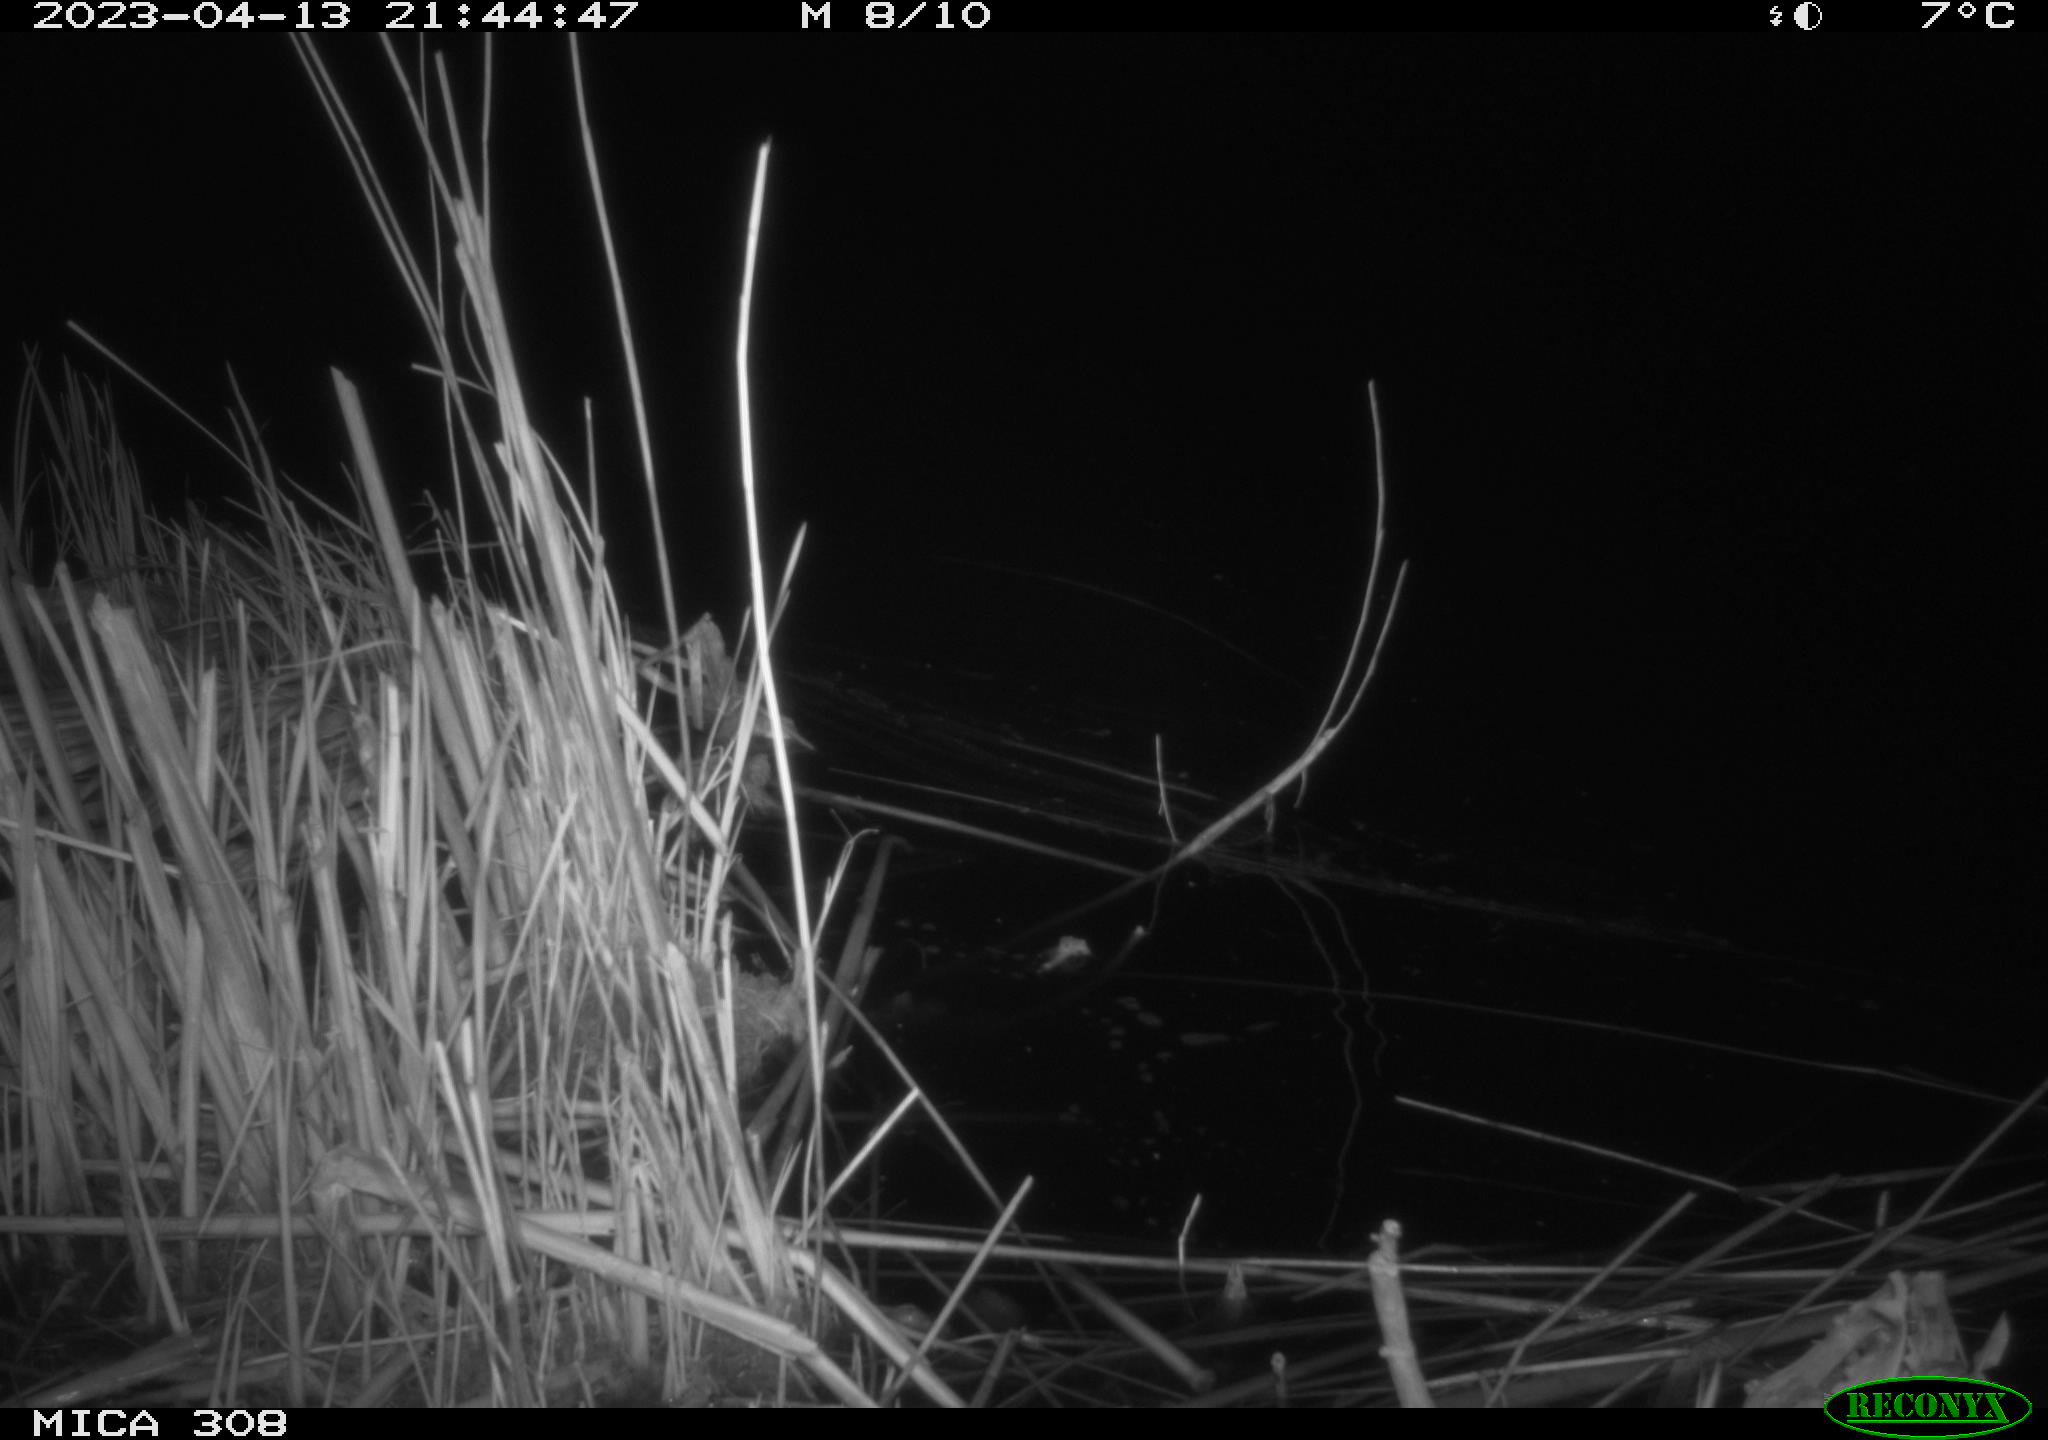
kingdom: Animalia
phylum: Chordata
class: Aves
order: Anseriformes
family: Anatidae
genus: Anas
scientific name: Anas
